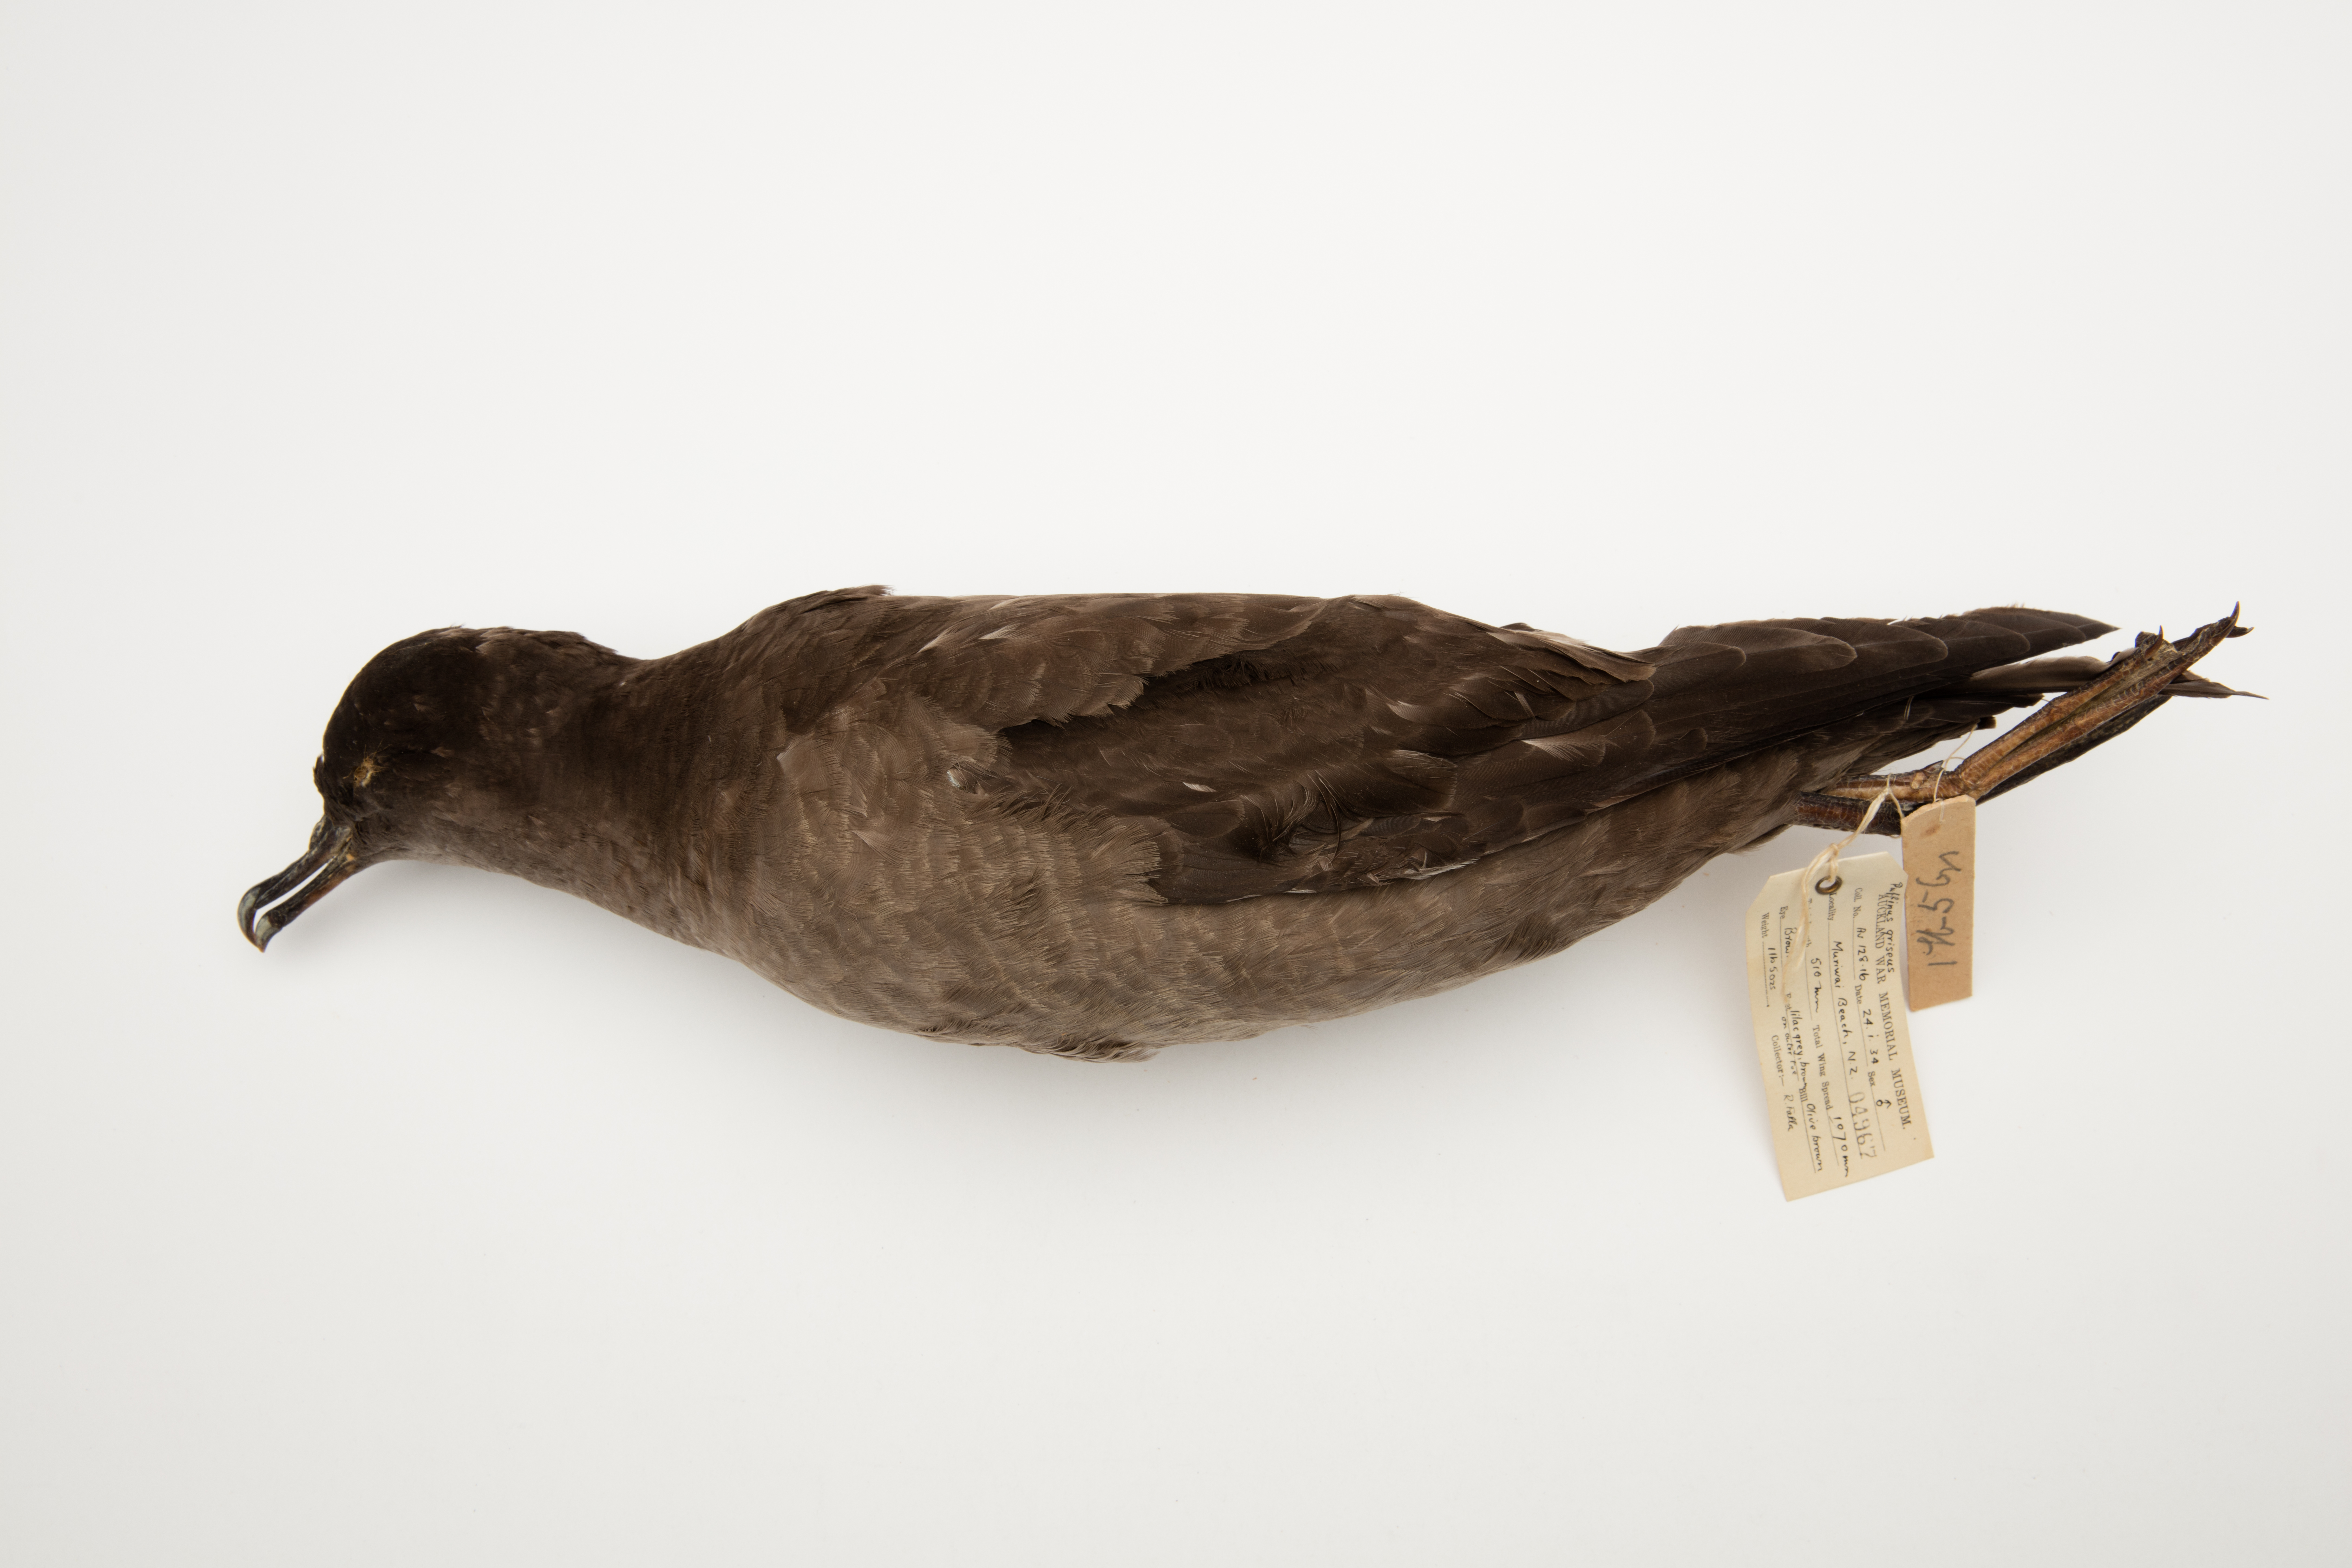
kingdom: Animalia
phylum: Chordata
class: Aves
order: Procellariiformes
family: Procellariidae
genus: Puffinus
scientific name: Puffinus griseus
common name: Sooty shearwater
